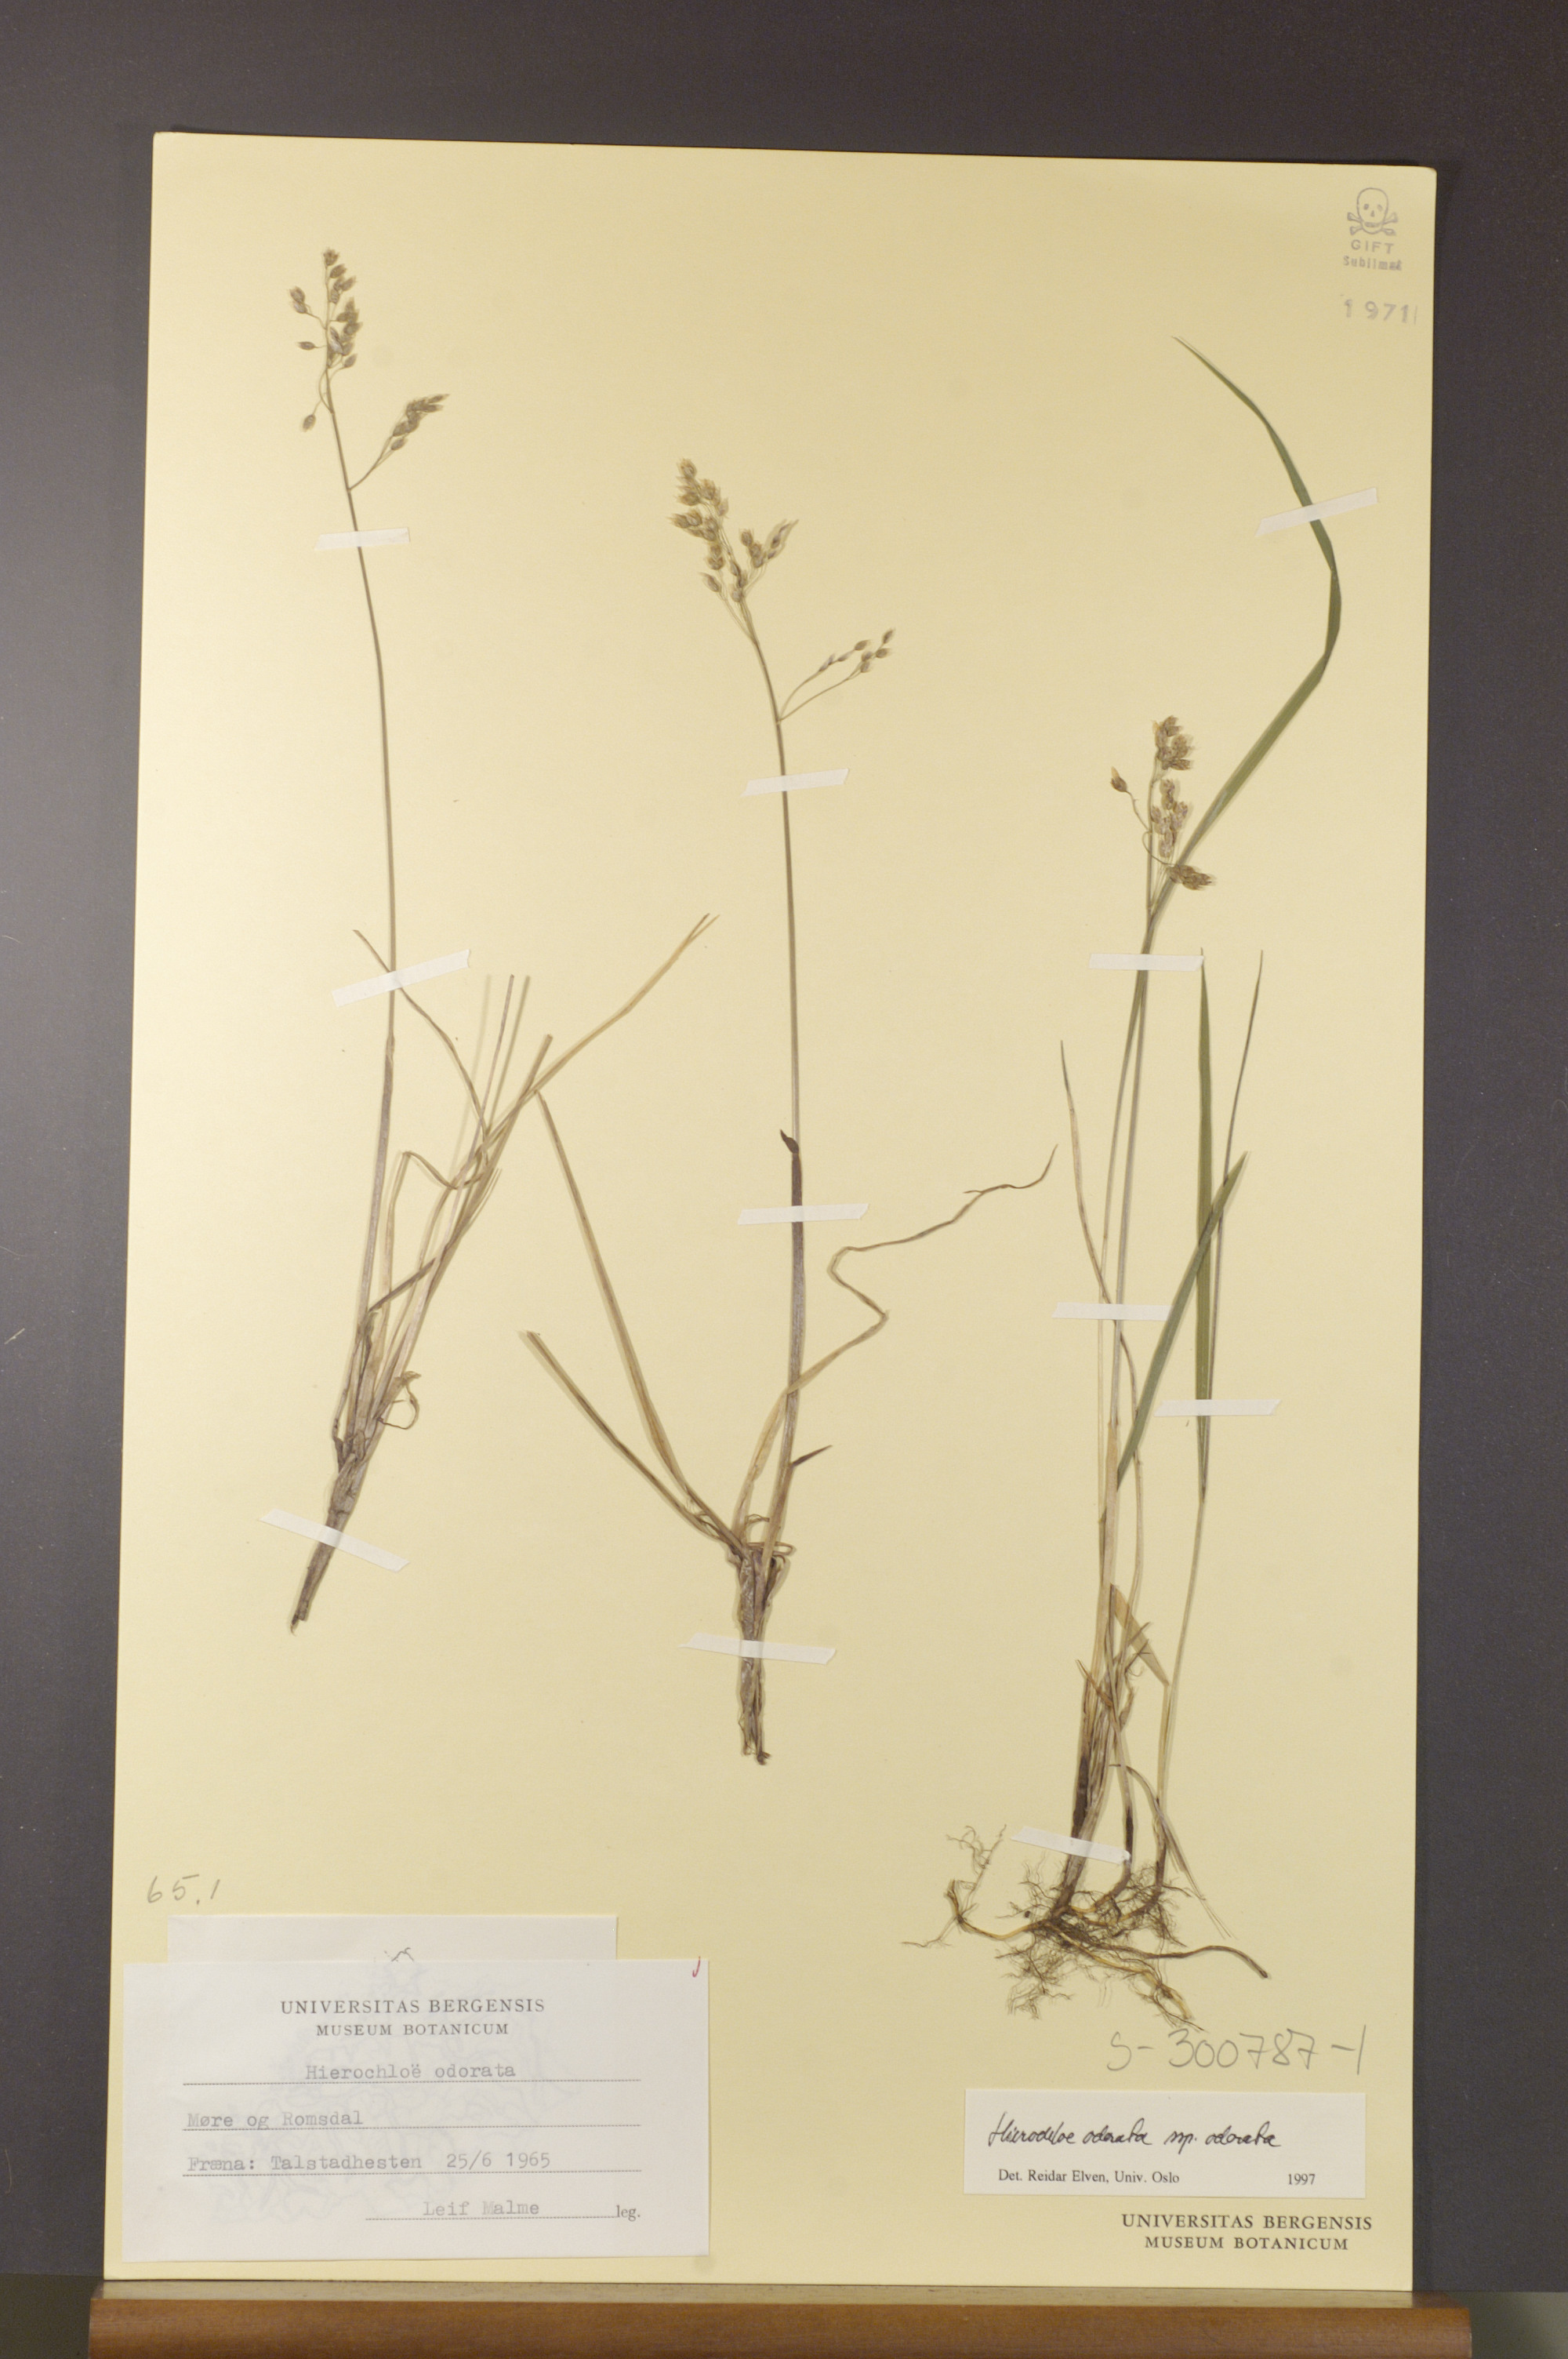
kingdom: Plantae
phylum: Tracheophyta
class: Liliopsida
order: Poales
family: Poaceae
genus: Anthoxanthum
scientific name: Anthoxanthum nitens
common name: Holy grass
